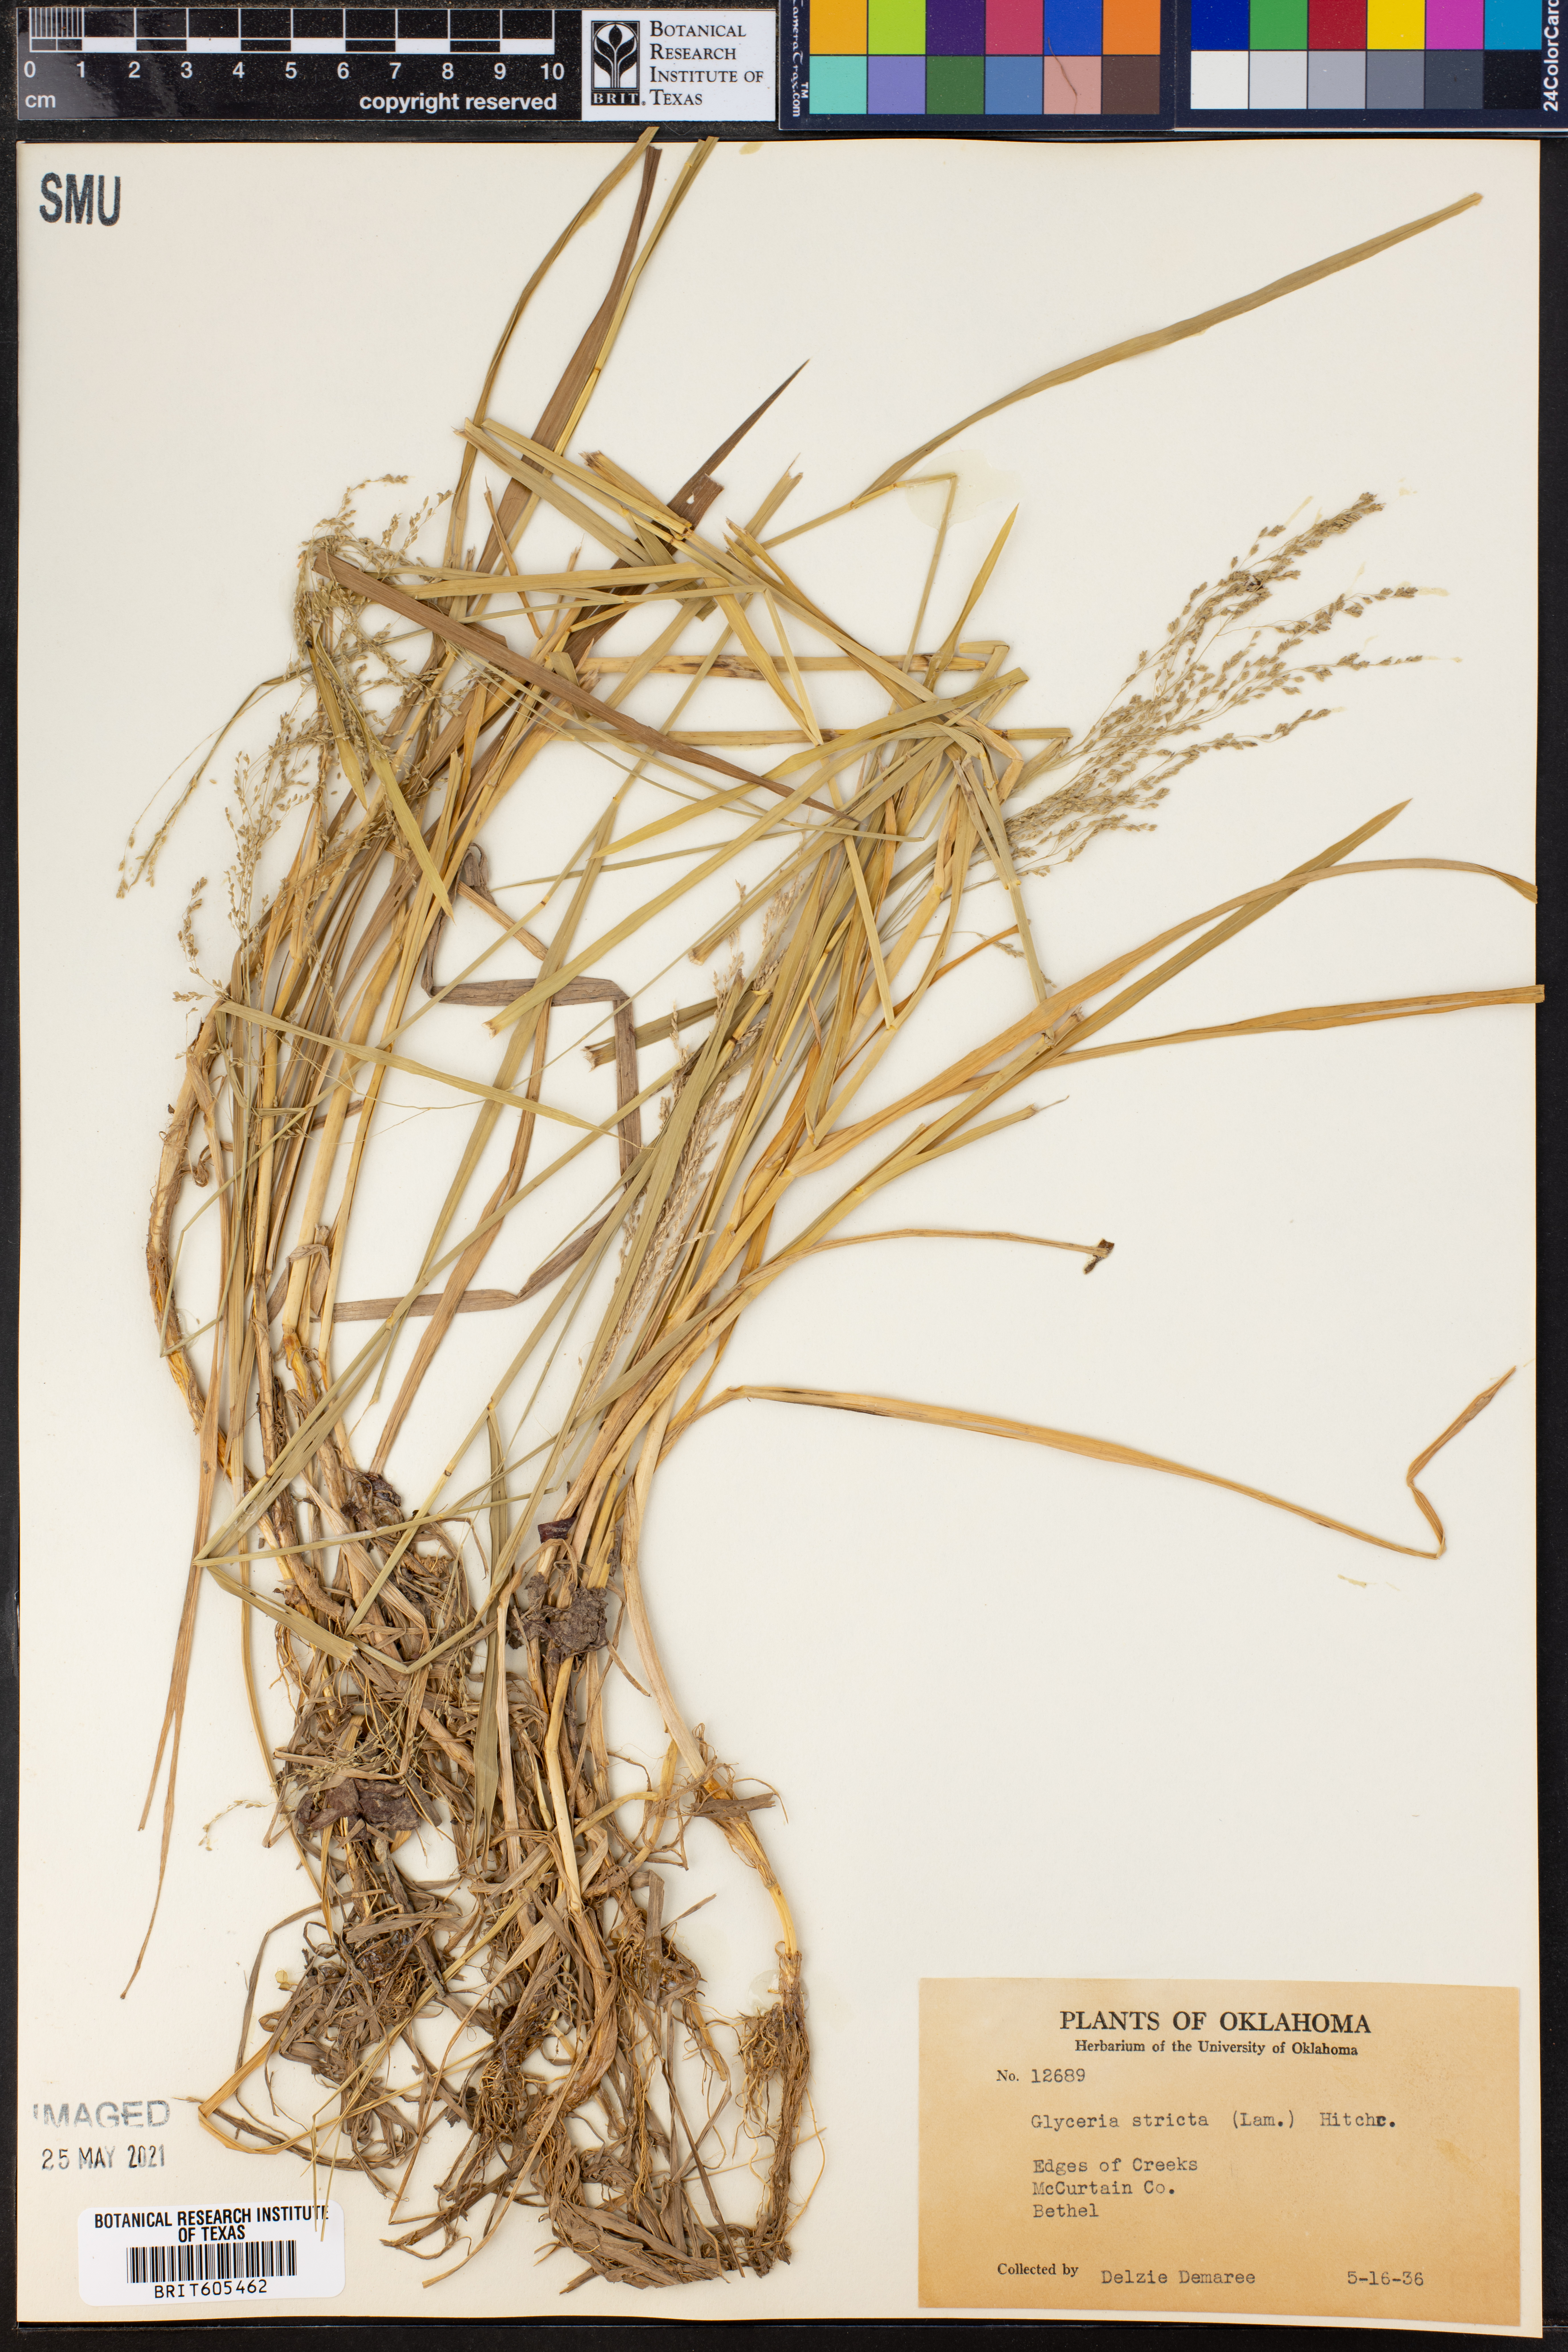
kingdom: Plantae
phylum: Tracheophyta
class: Liliopsida
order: Poales
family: Poaceae
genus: Sporobolus
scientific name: Sporobolus compositus
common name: Rough dropseed
